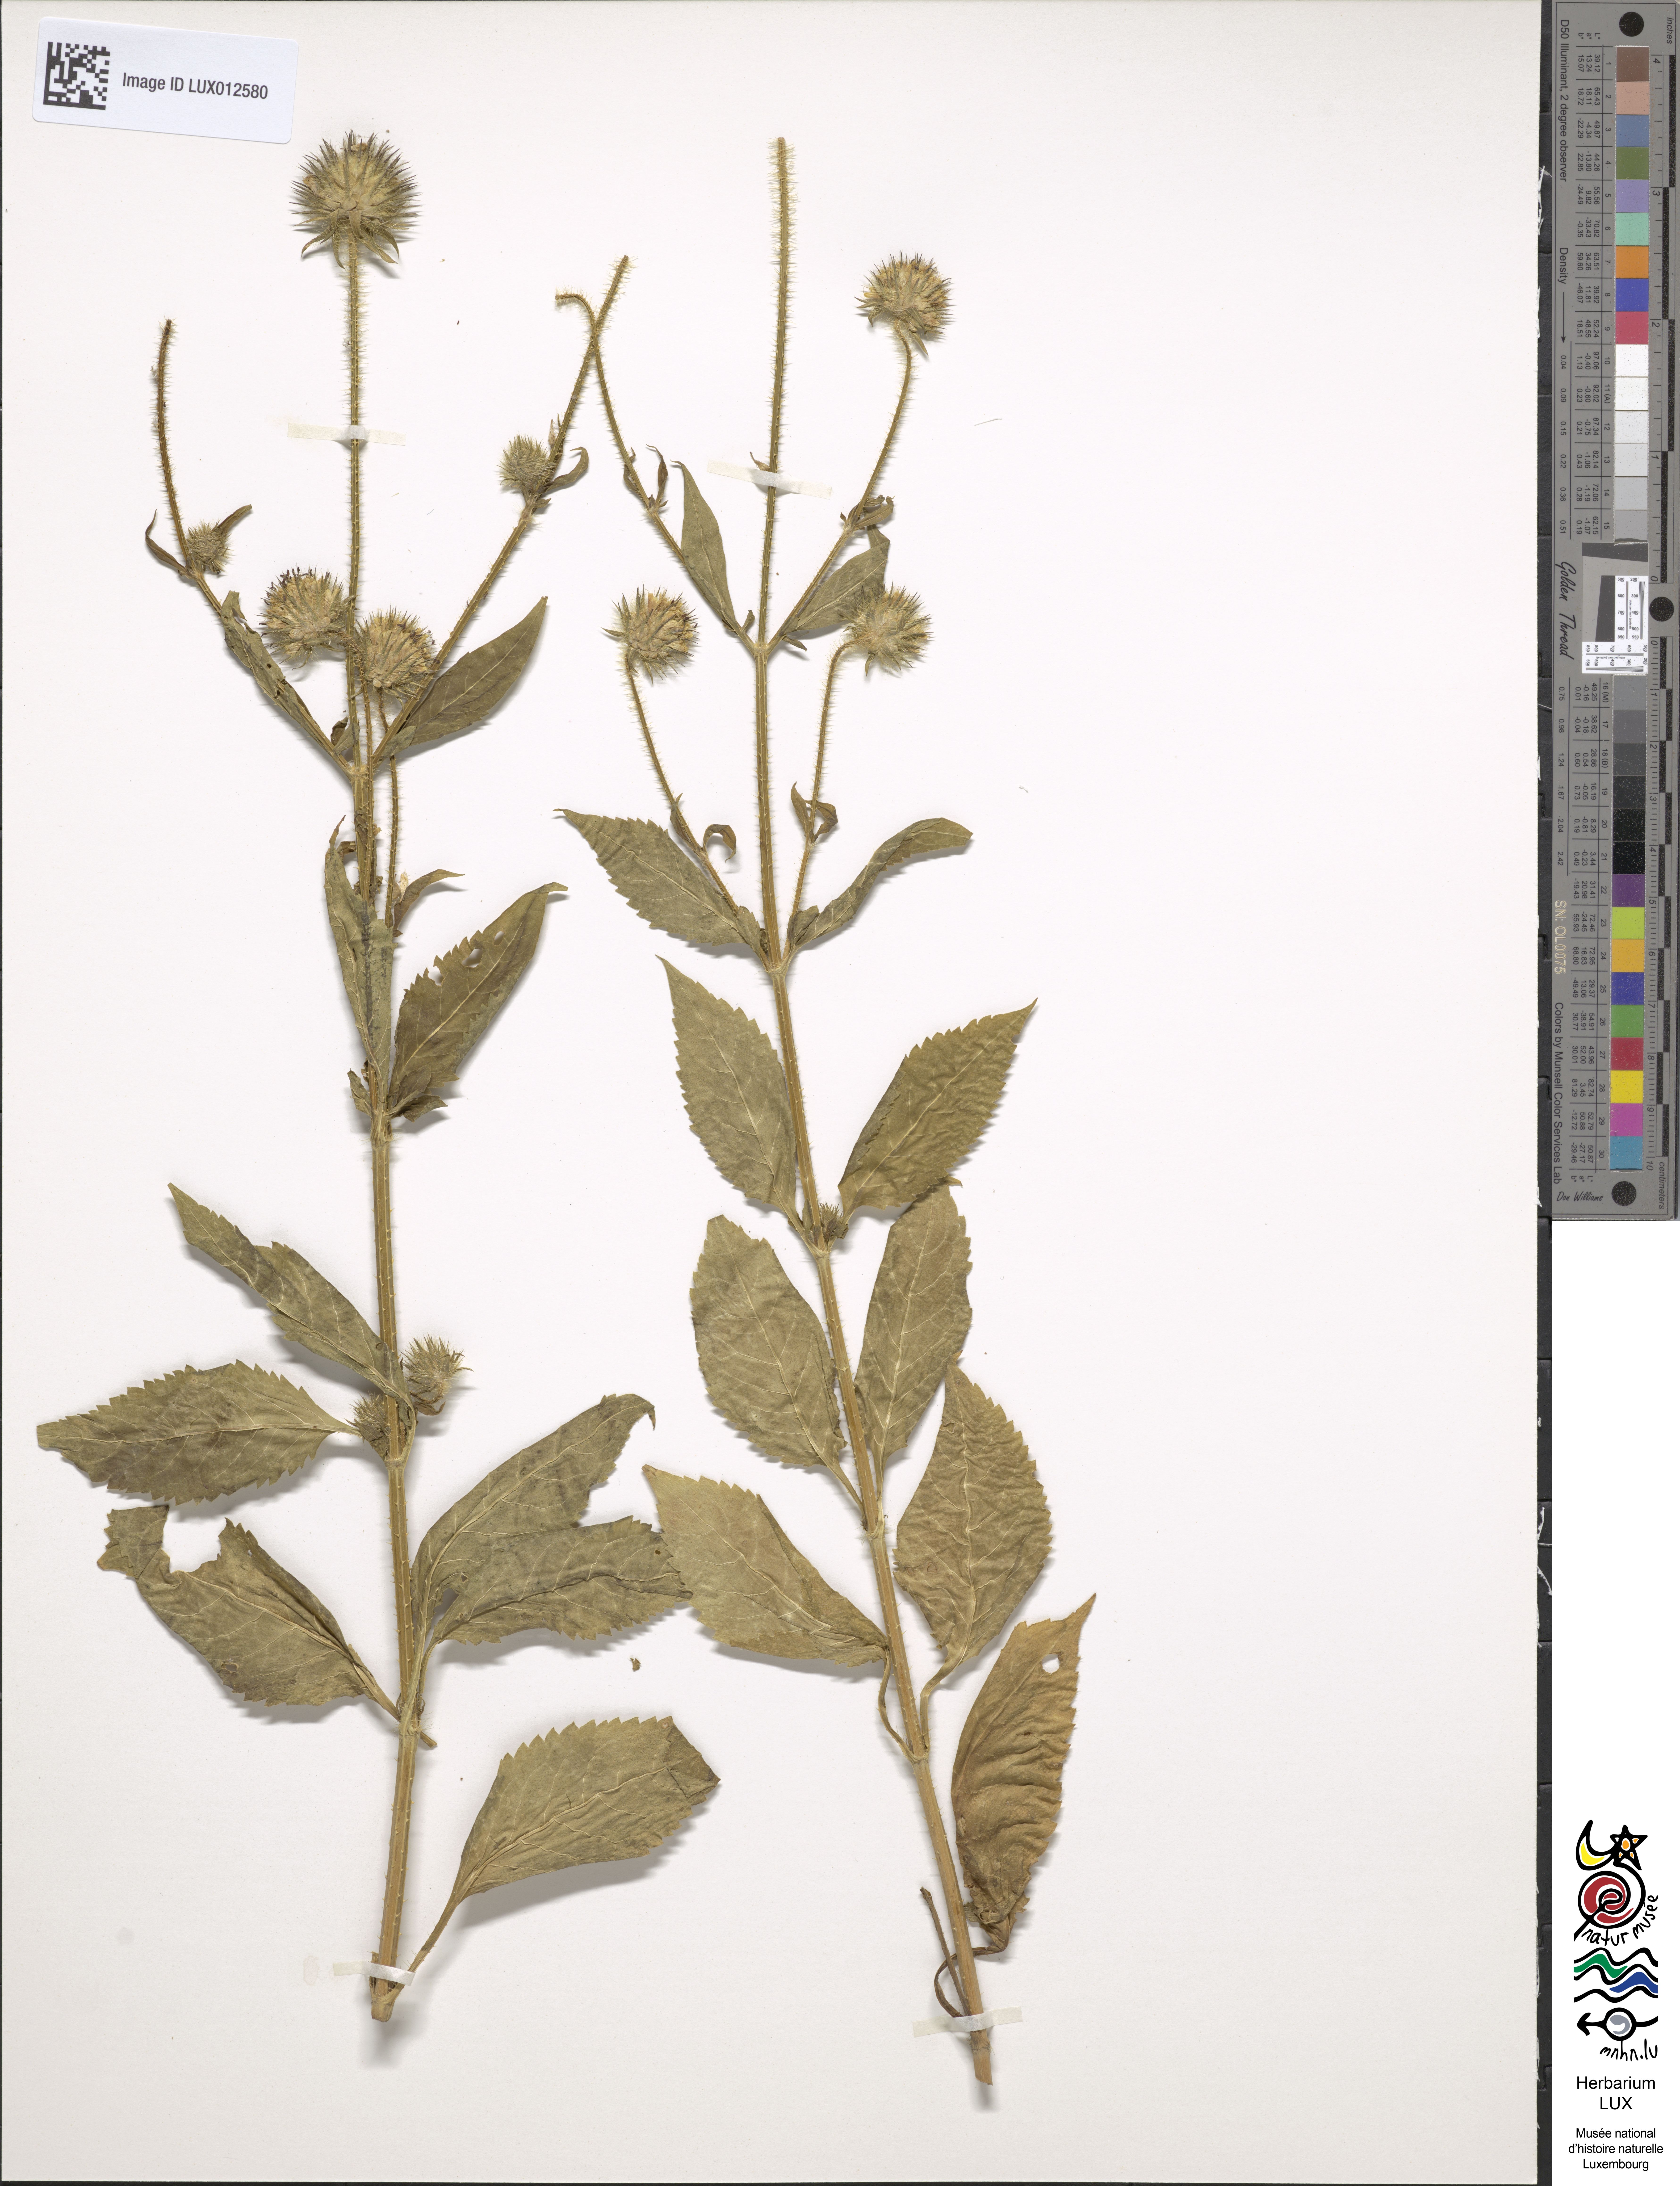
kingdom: Plantae
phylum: Tracheophyta
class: Magnoliopsida
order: Dipsacales
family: Caprifoliaceae
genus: Dipsacus
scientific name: Dipsacus pilosus
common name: Small teasel
